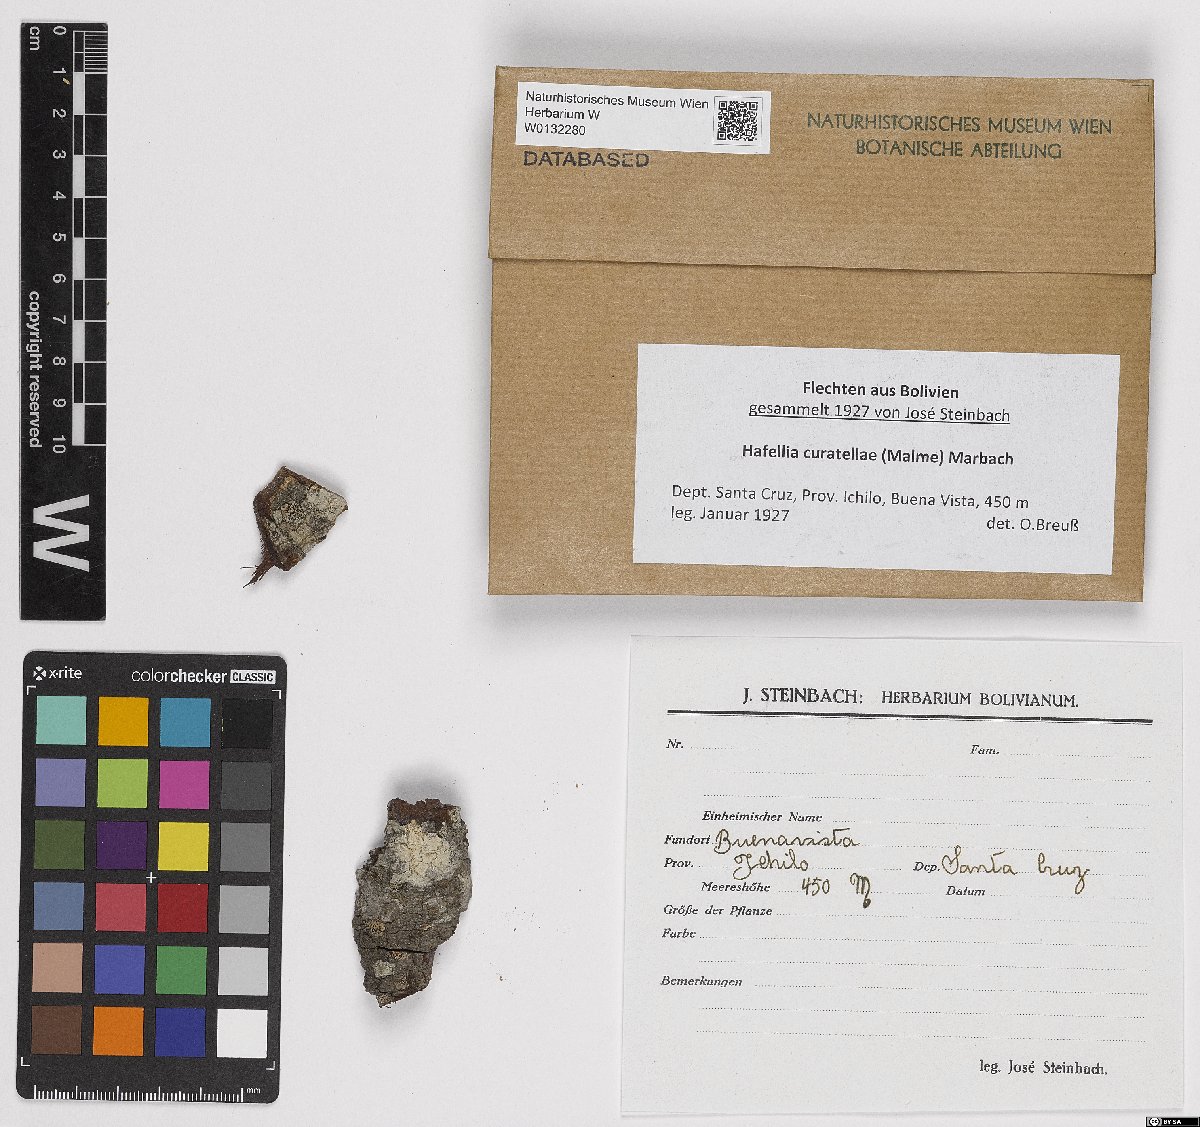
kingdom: Fungi
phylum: Ascomycota
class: Lecanoromycetes
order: Caliciales
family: Caliciaceae
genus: Buellia
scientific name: Buellia curatellae
